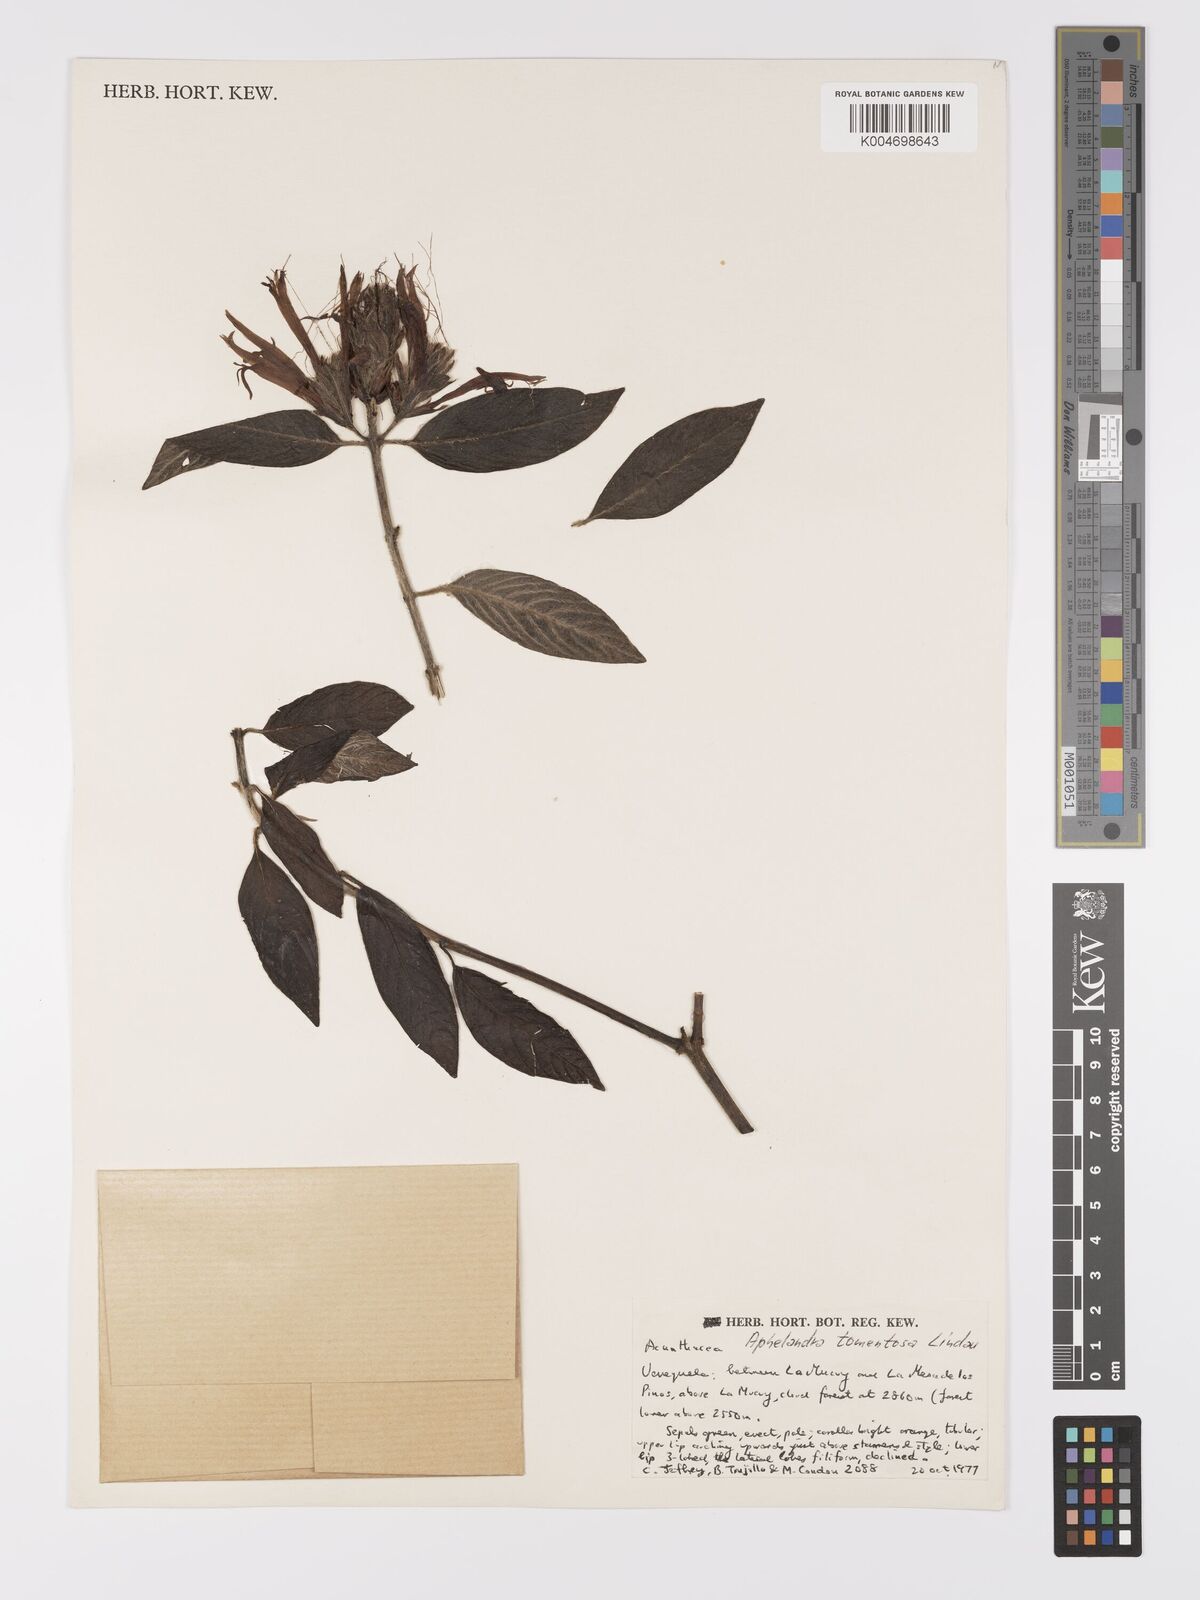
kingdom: Plantae
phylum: Tracheophyta
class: Magnoliopsida
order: Lamiales
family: Acanthaceae
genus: Aphelandra
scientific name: Aphelandra tomentosa
